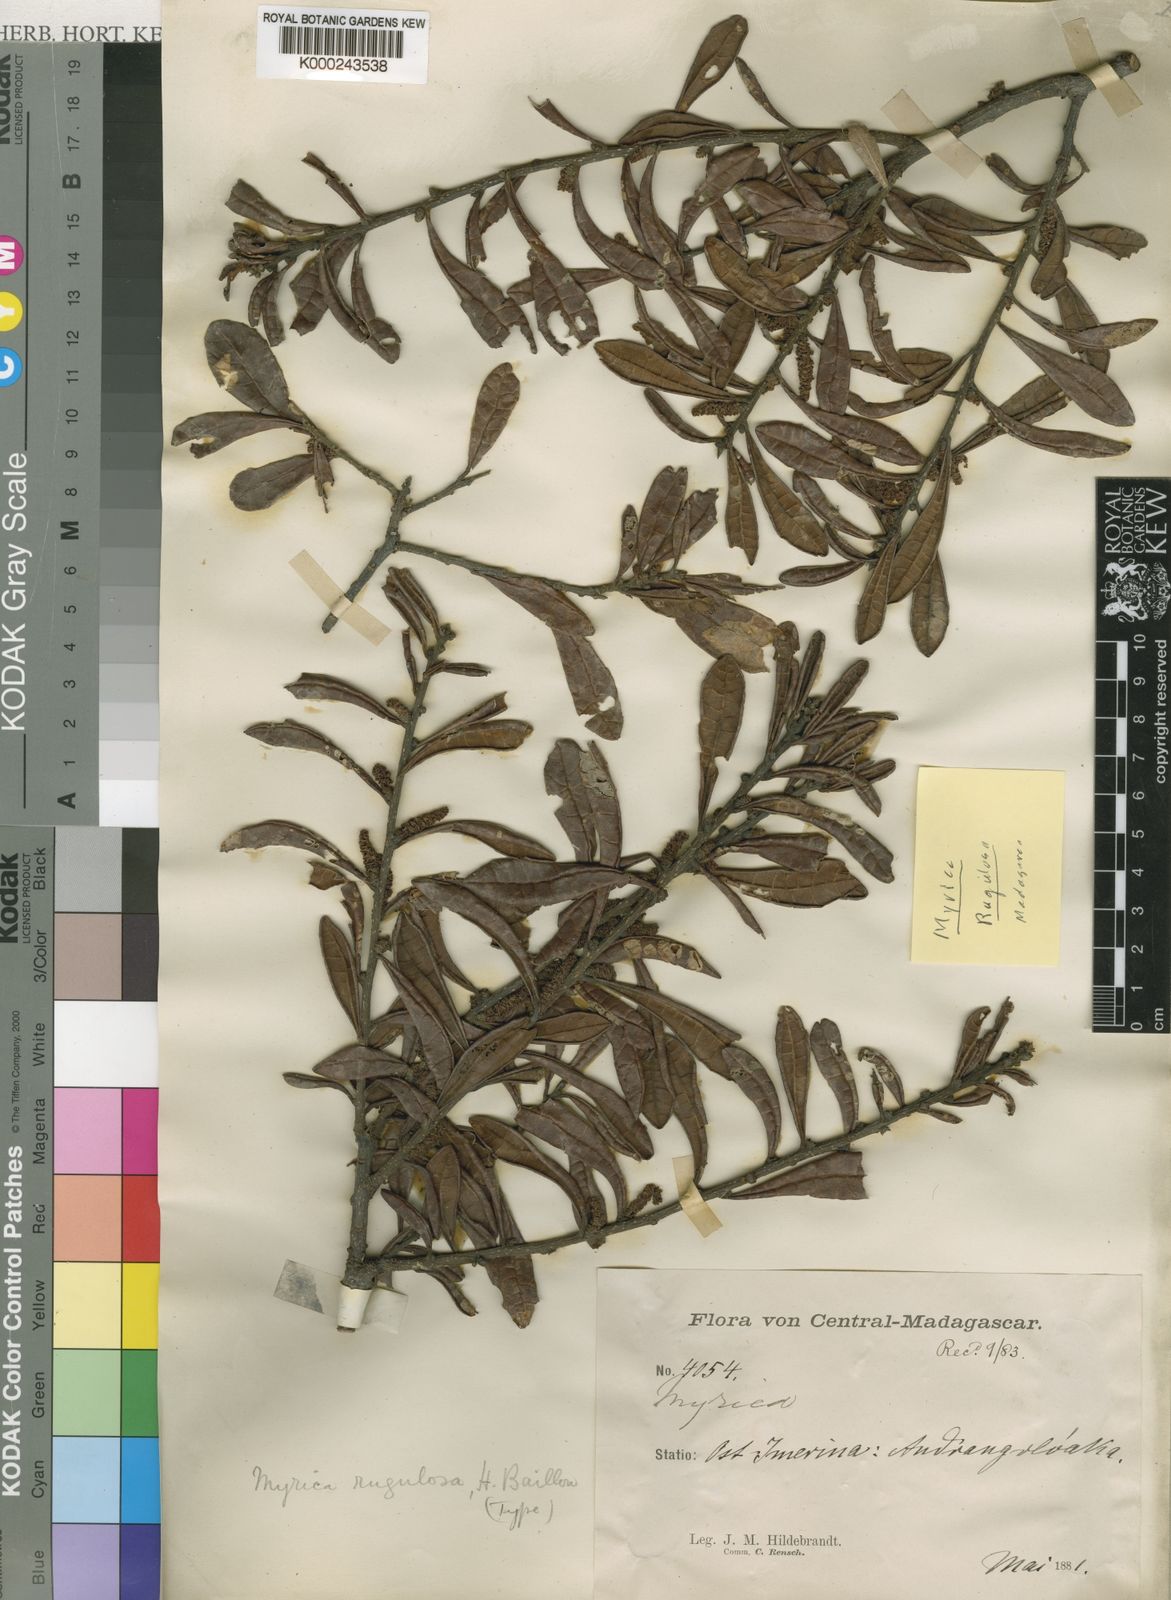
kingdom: Plantae
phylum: Tracheophyta
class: Magnoliopsida
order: Fagales
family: Myricaceae
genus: Morella
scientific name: Morella salicifolia
